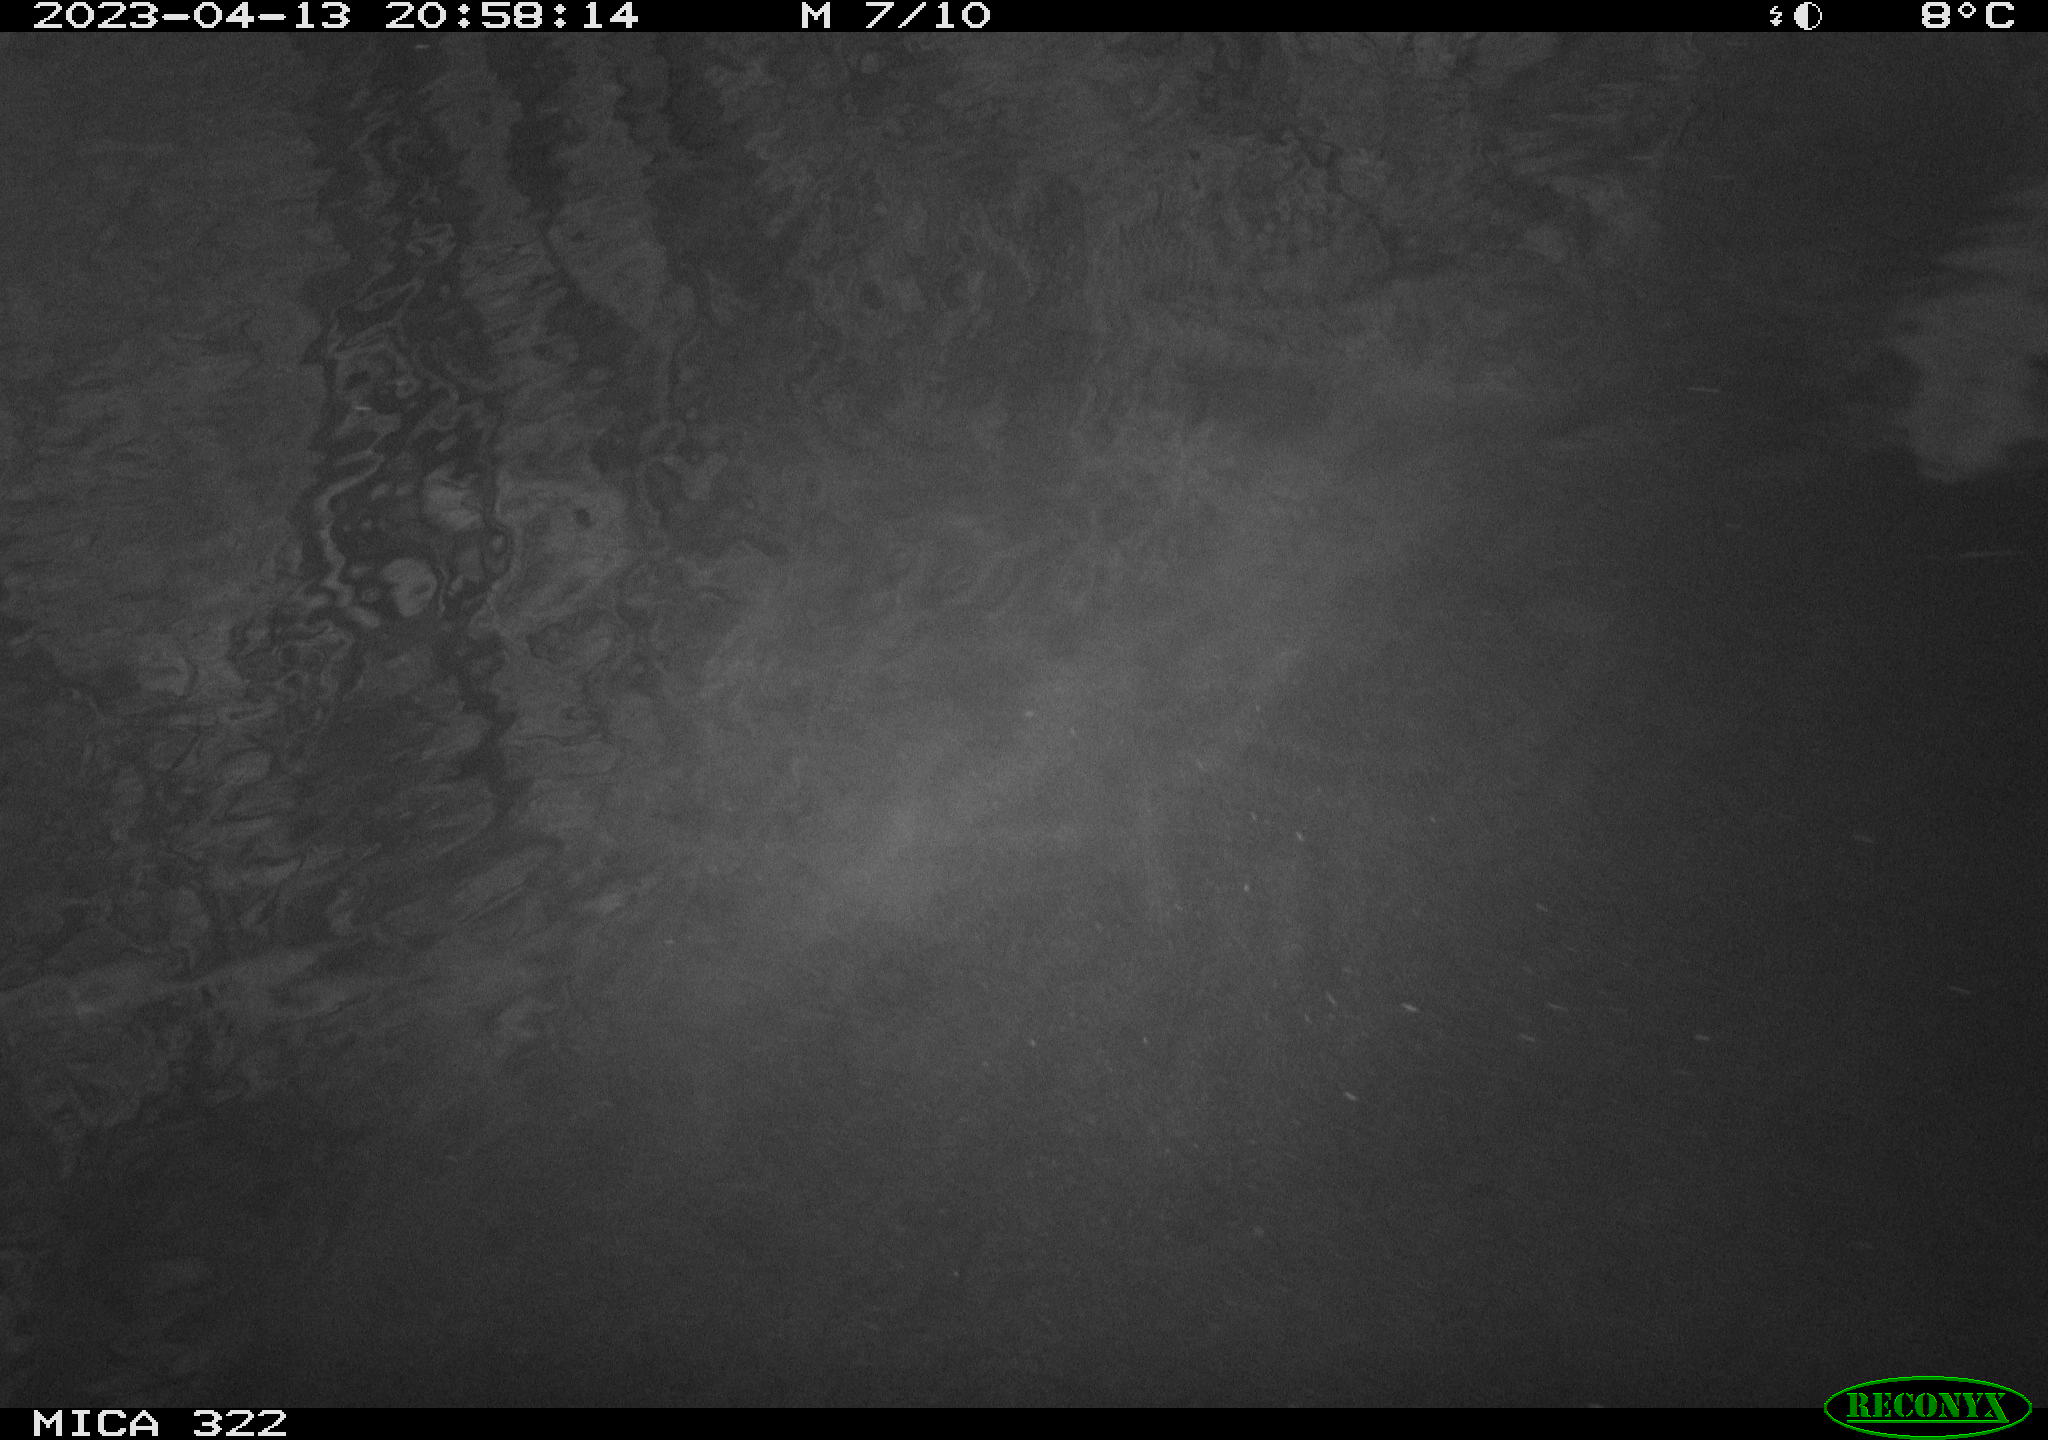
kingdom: Animalia
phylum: Chordata
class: Aves
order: Anseriformes
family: Anatidae
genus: Anas
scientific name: Anas
